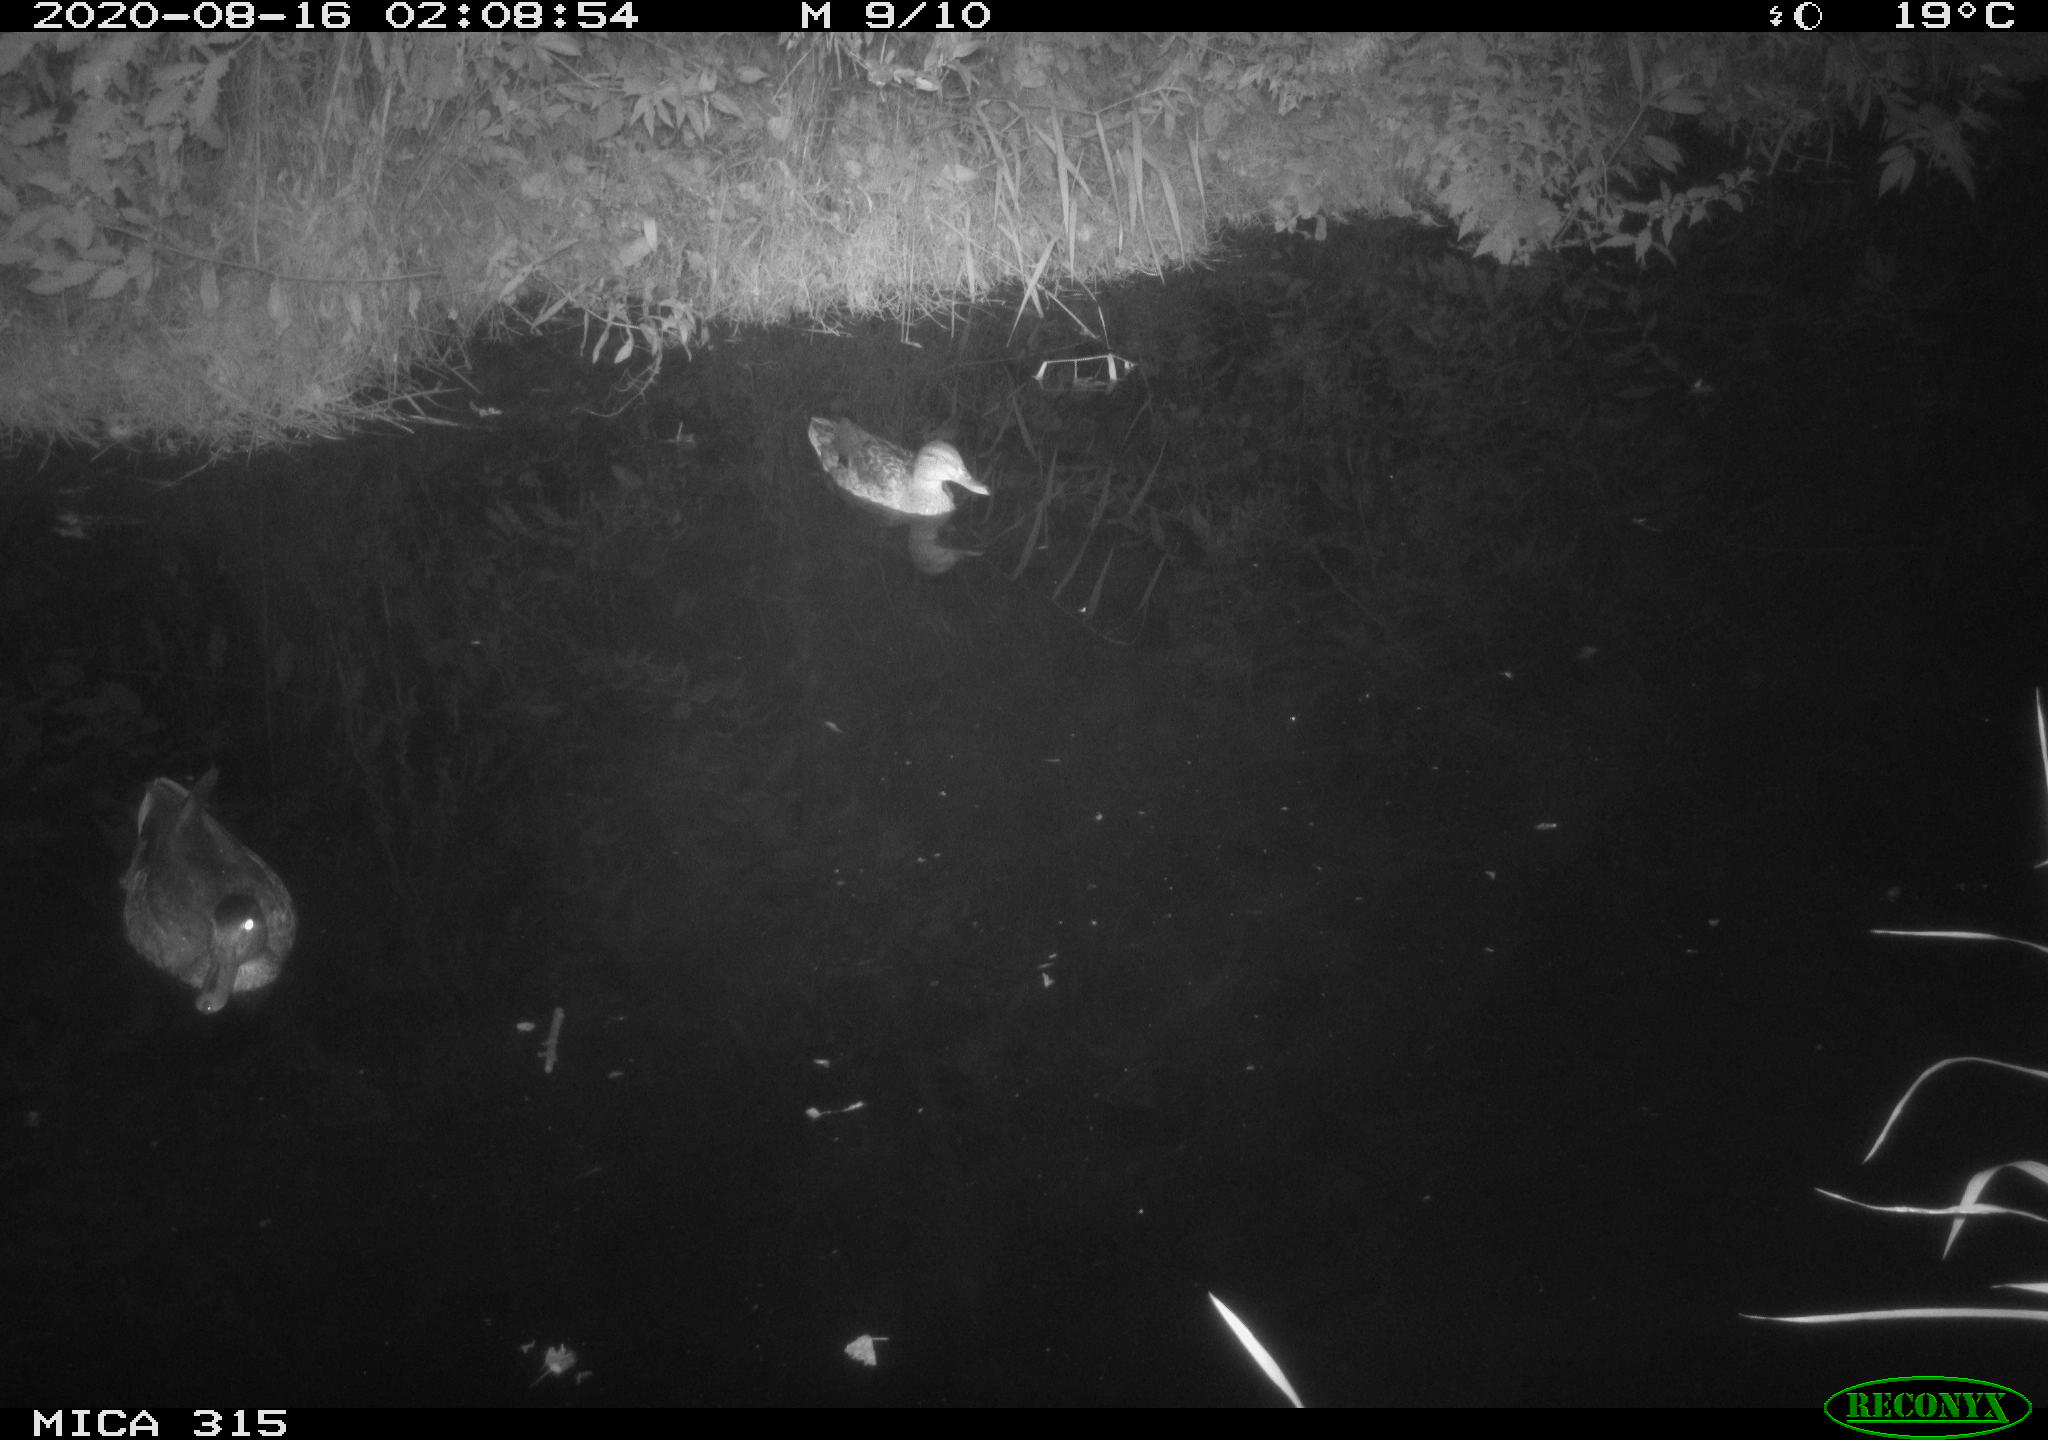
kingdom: Animalia
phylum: Chordata
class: Aves
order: Anseriformes
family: Anatidae
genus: Anas
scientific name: Anas platyrhynchos
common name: Mallard
